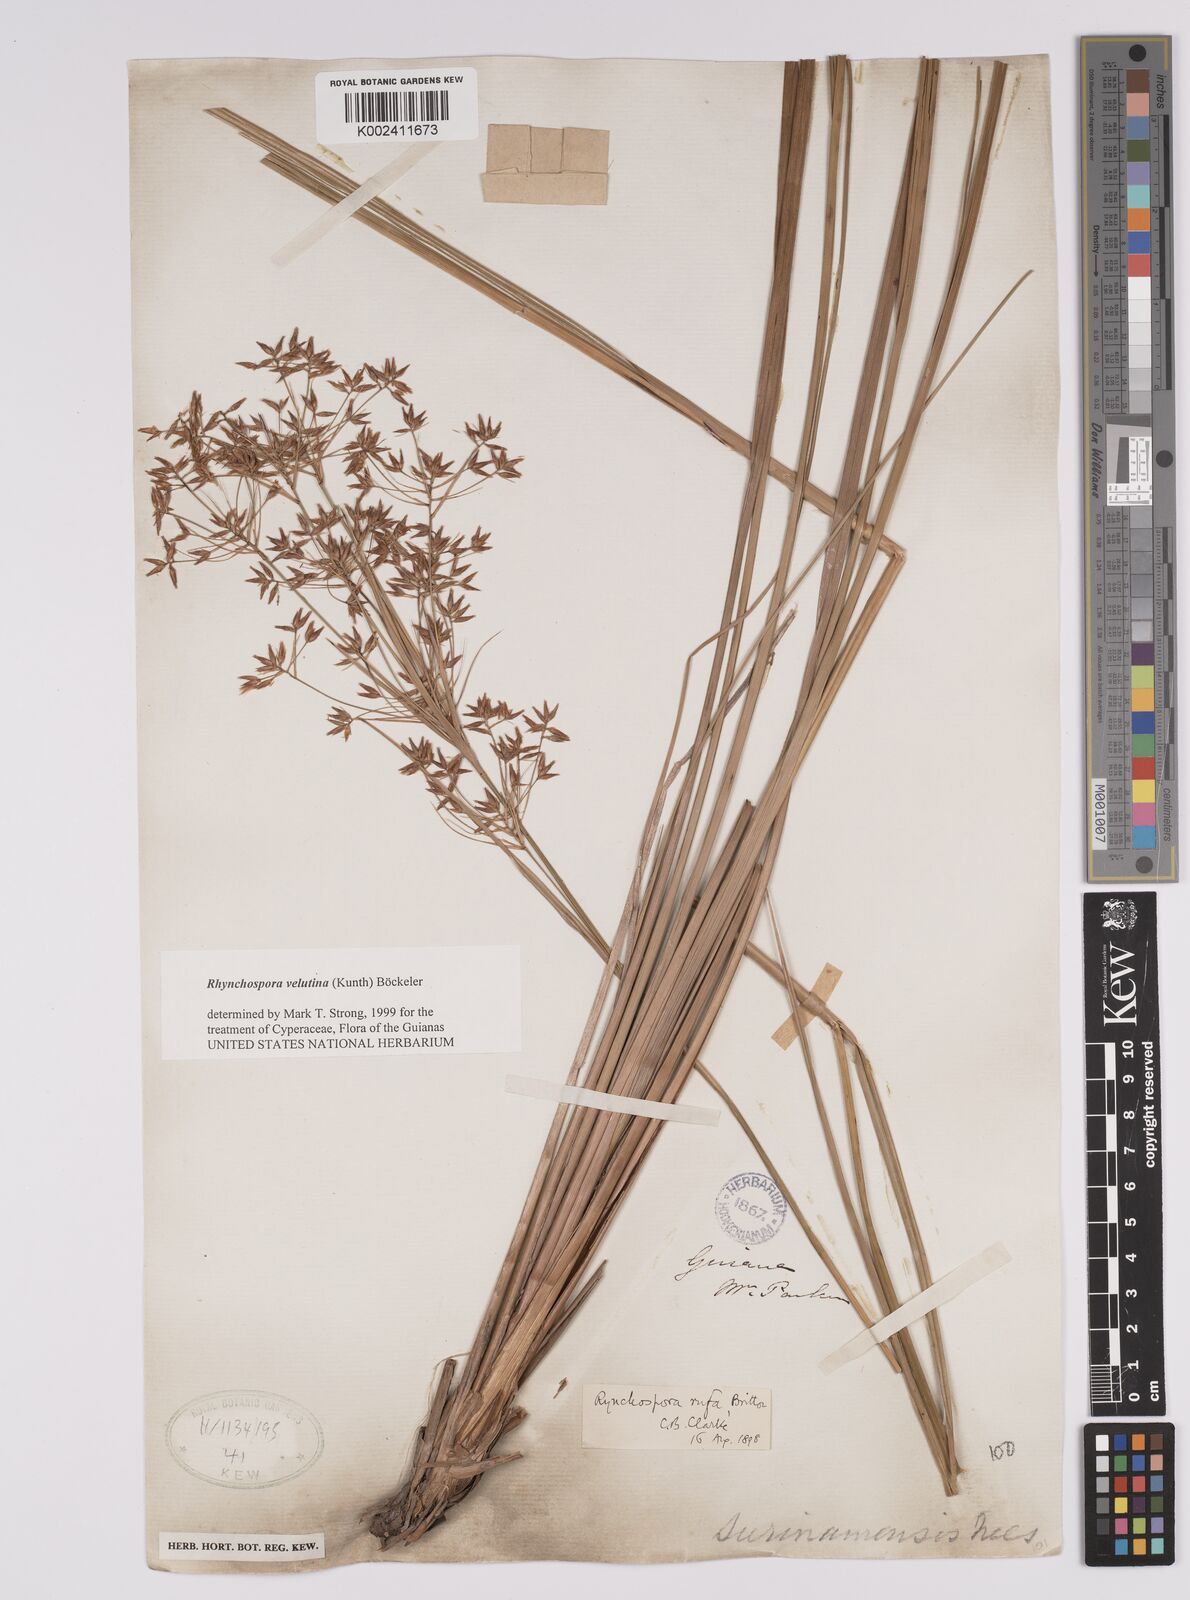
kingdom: Plantae
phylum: Tracheophyta
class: Liliopsida
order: Poales
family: Cyperaceae
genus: Rhynchospora
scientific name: Rhynchospora velutina
